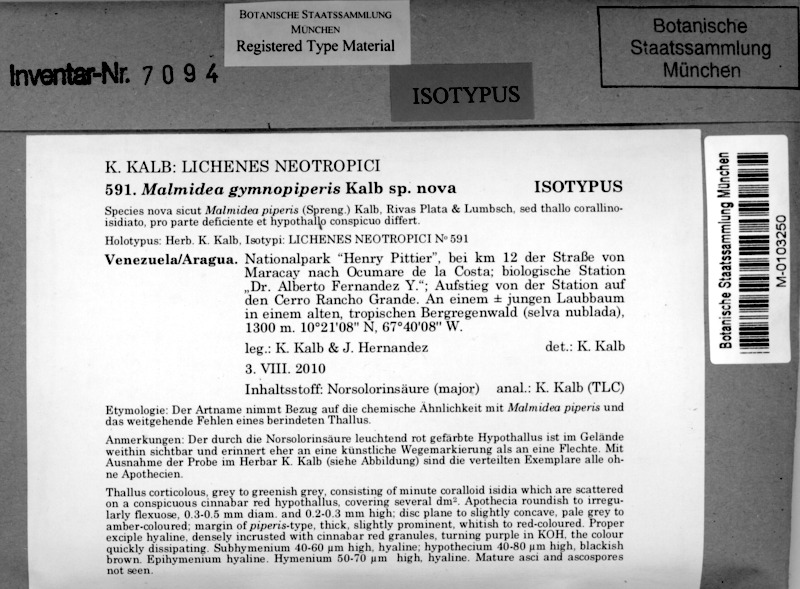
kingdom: Fungi
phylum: Ascomycota
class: Lecanoromycetes
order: Lecanorales
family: Malmideaceae
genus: Sprucidea
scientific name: Sprucidea gymnopiperis
